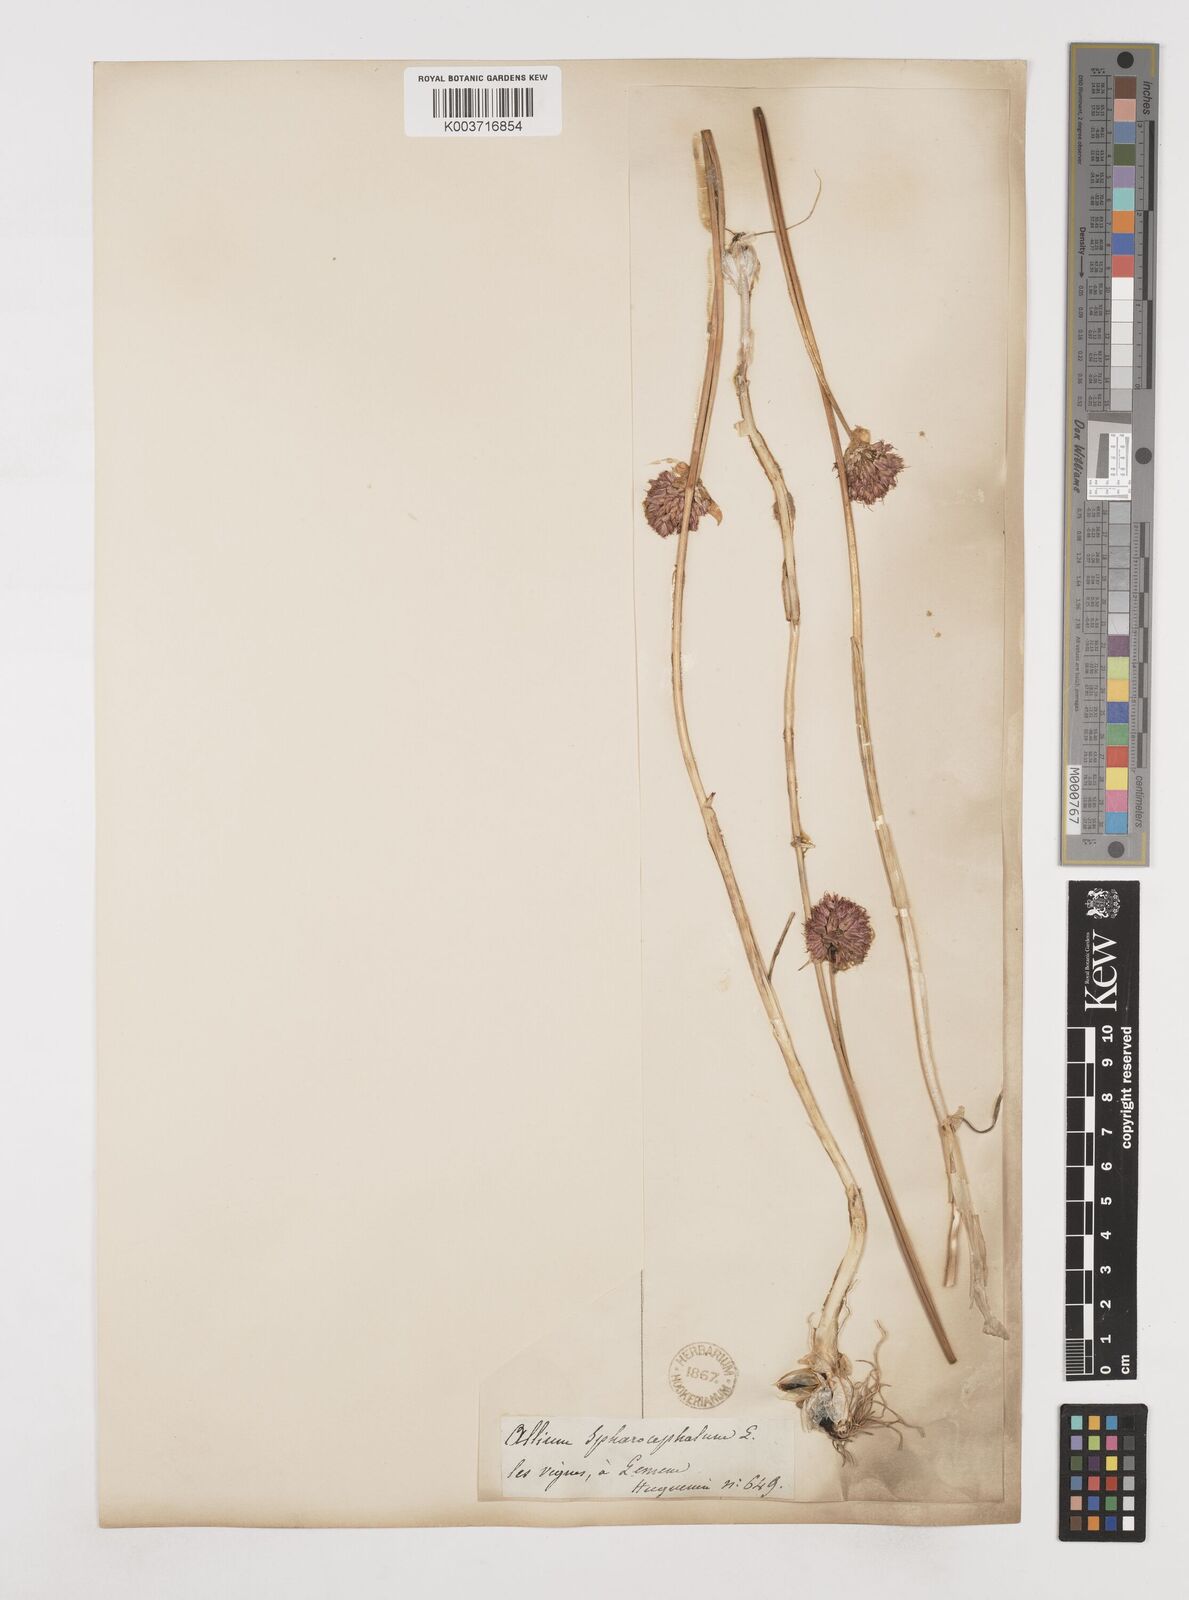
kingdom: Plantae
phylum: Tracheophyta
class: Liliopsida
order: Asparagales
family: Amaryllidaceae
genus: Allium
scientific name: Allium sphaerocephalon
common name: Round-headed leek
